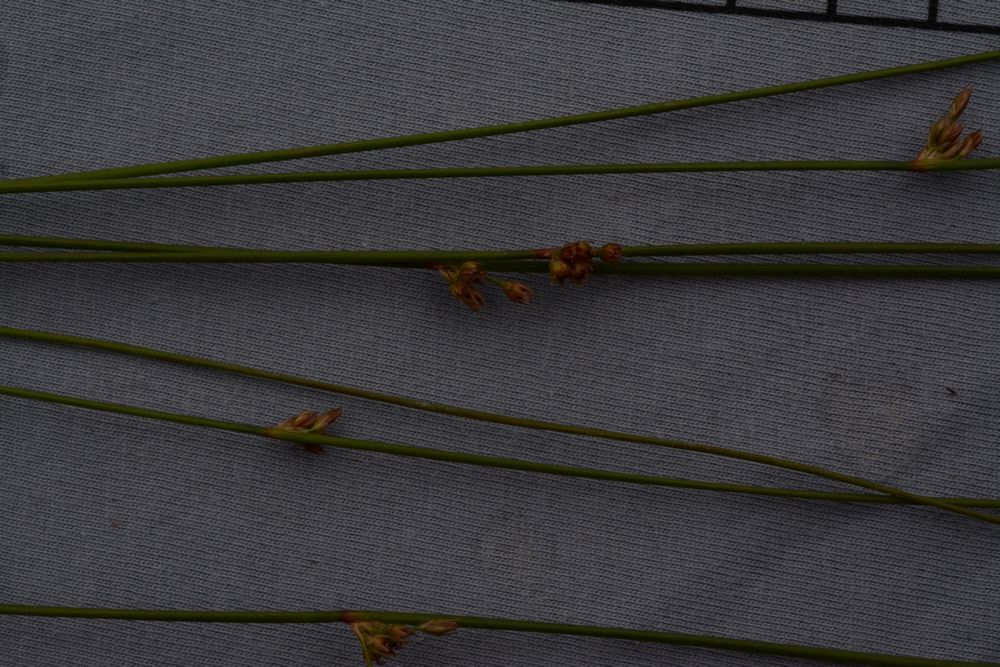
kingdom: Plantae
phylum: Tracheophyta
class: Liliopsida
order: Poales
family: Juncaceae
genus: Juncus
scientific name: Juncus filiformis
